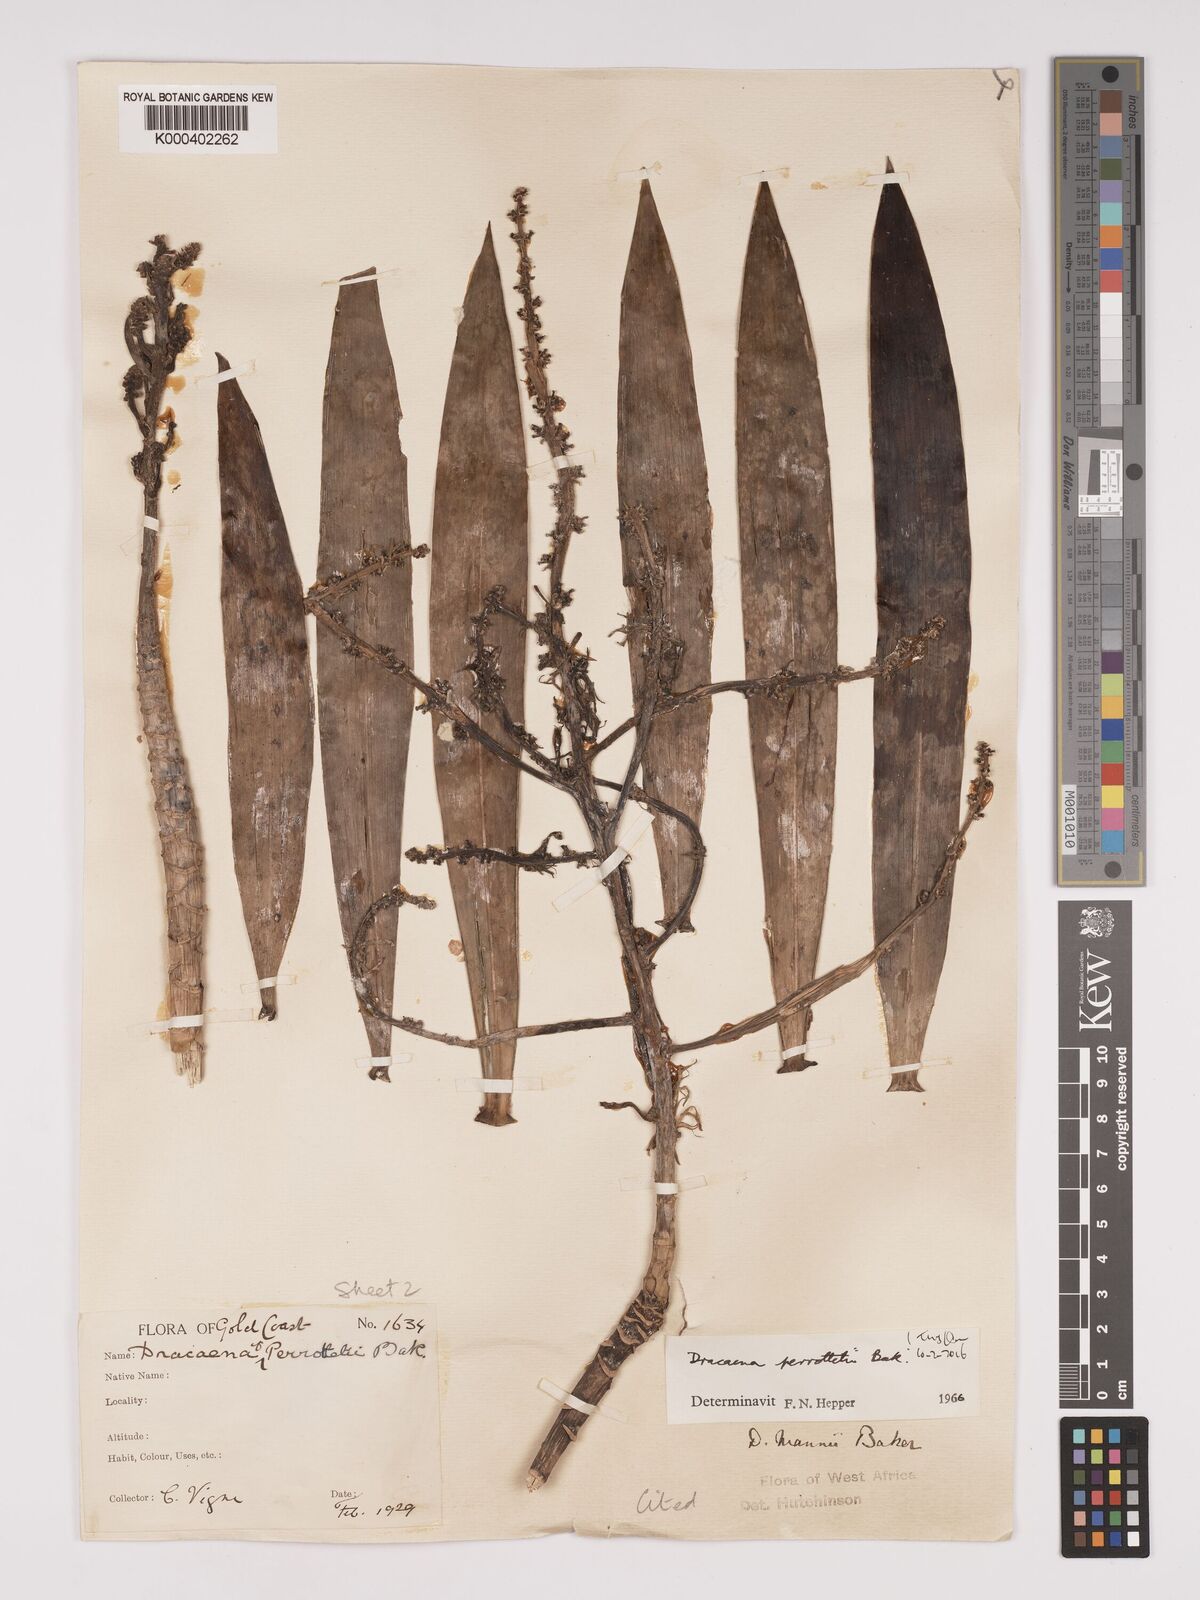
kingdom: Plantae
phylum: Tracheophyta
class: Liliopsida
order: Asparagales
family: Asparagaceae
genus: Dracaena
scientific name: Dracaena mannii
